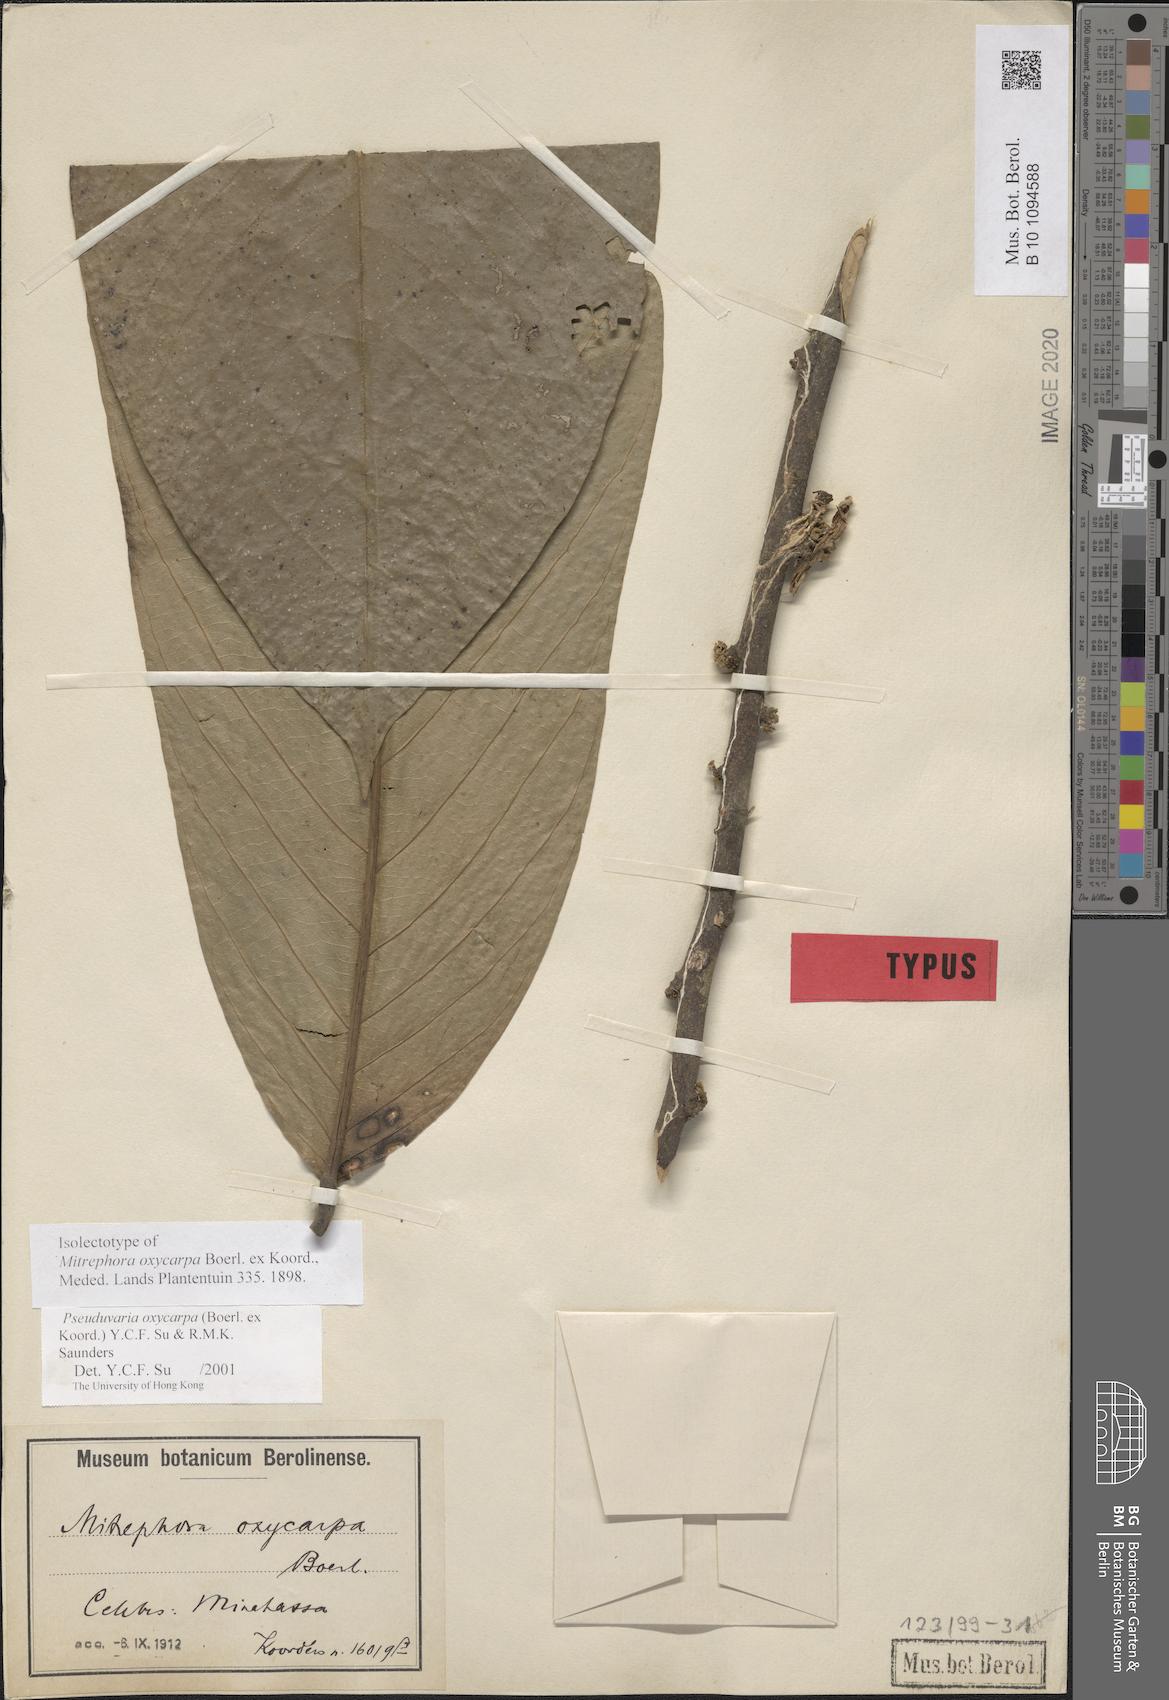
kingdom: Plantae
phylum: Tracheophyta
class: Magnoliopsida
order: Magnoliales
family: Annonaceae
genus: Pseuduvaria
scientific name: Pseuduvaria oxycarpa
